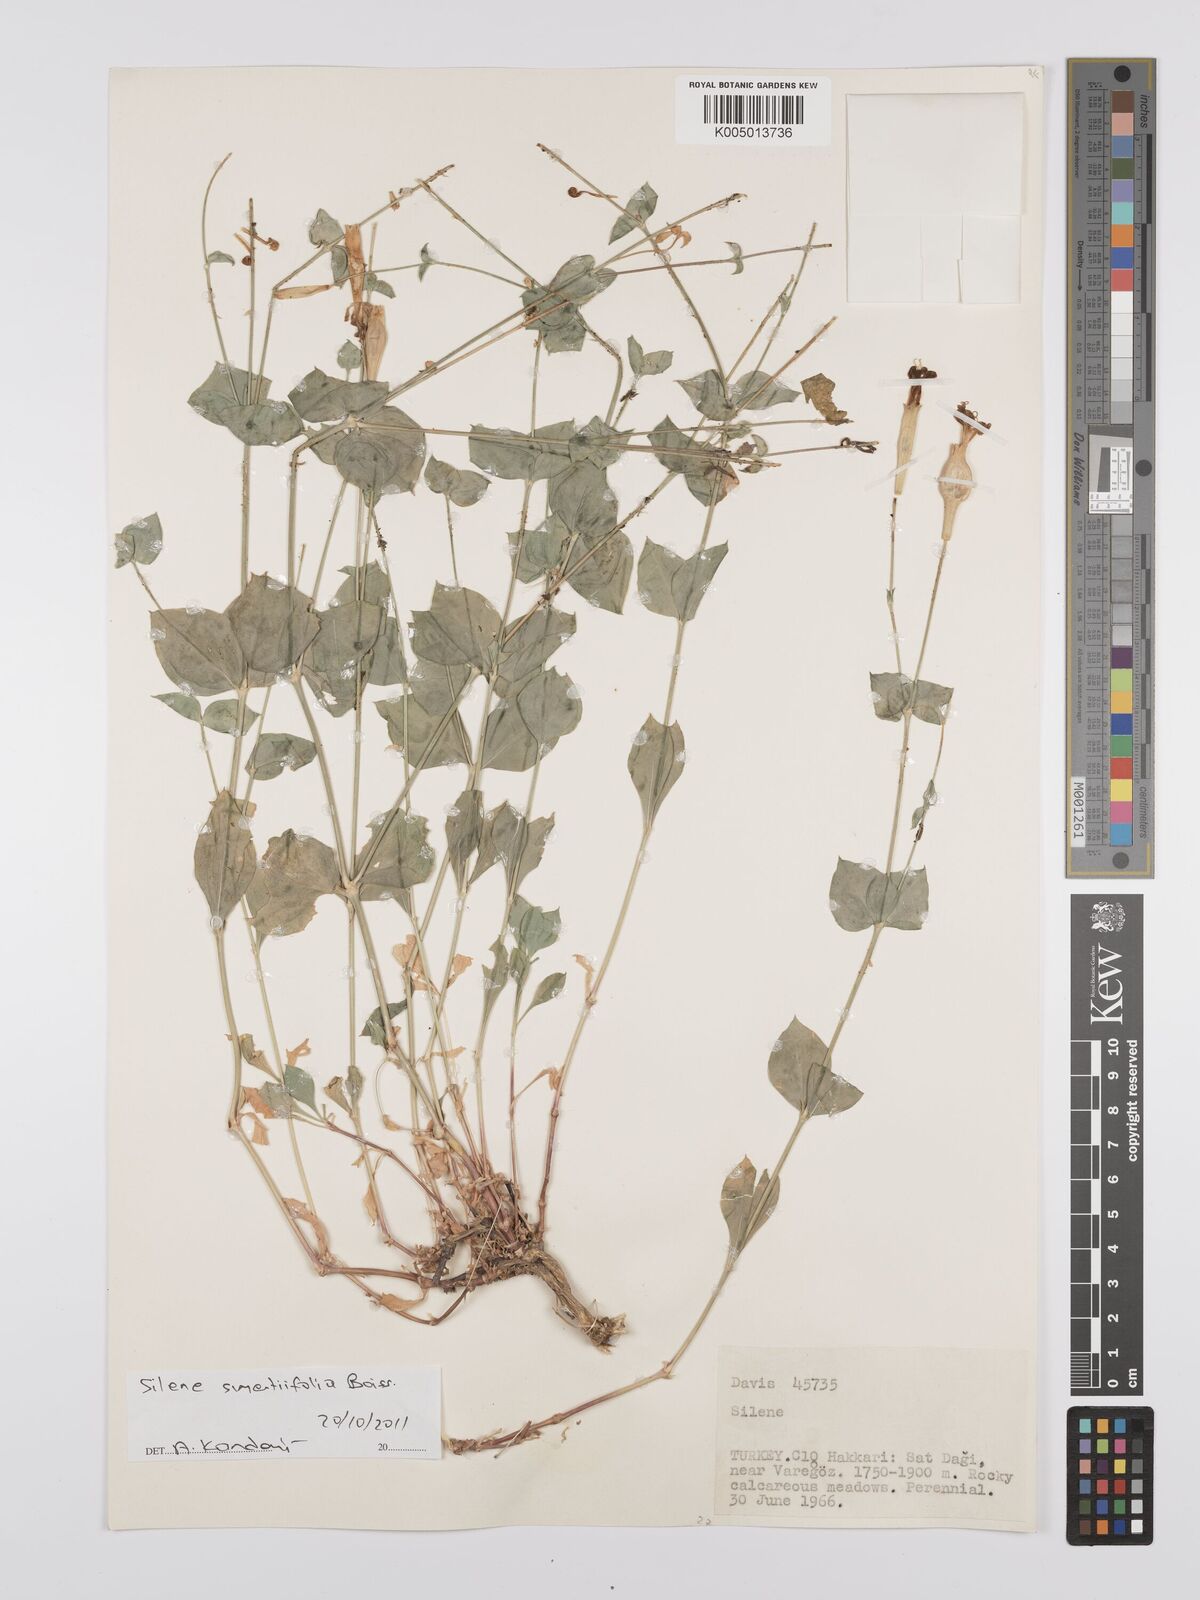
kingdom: Plantae
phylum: Tracheophyta
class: Magnoliopsida
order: Caryophyllales
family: Caryophyllaceae
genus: Silene
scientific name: Silene swertiifolia
